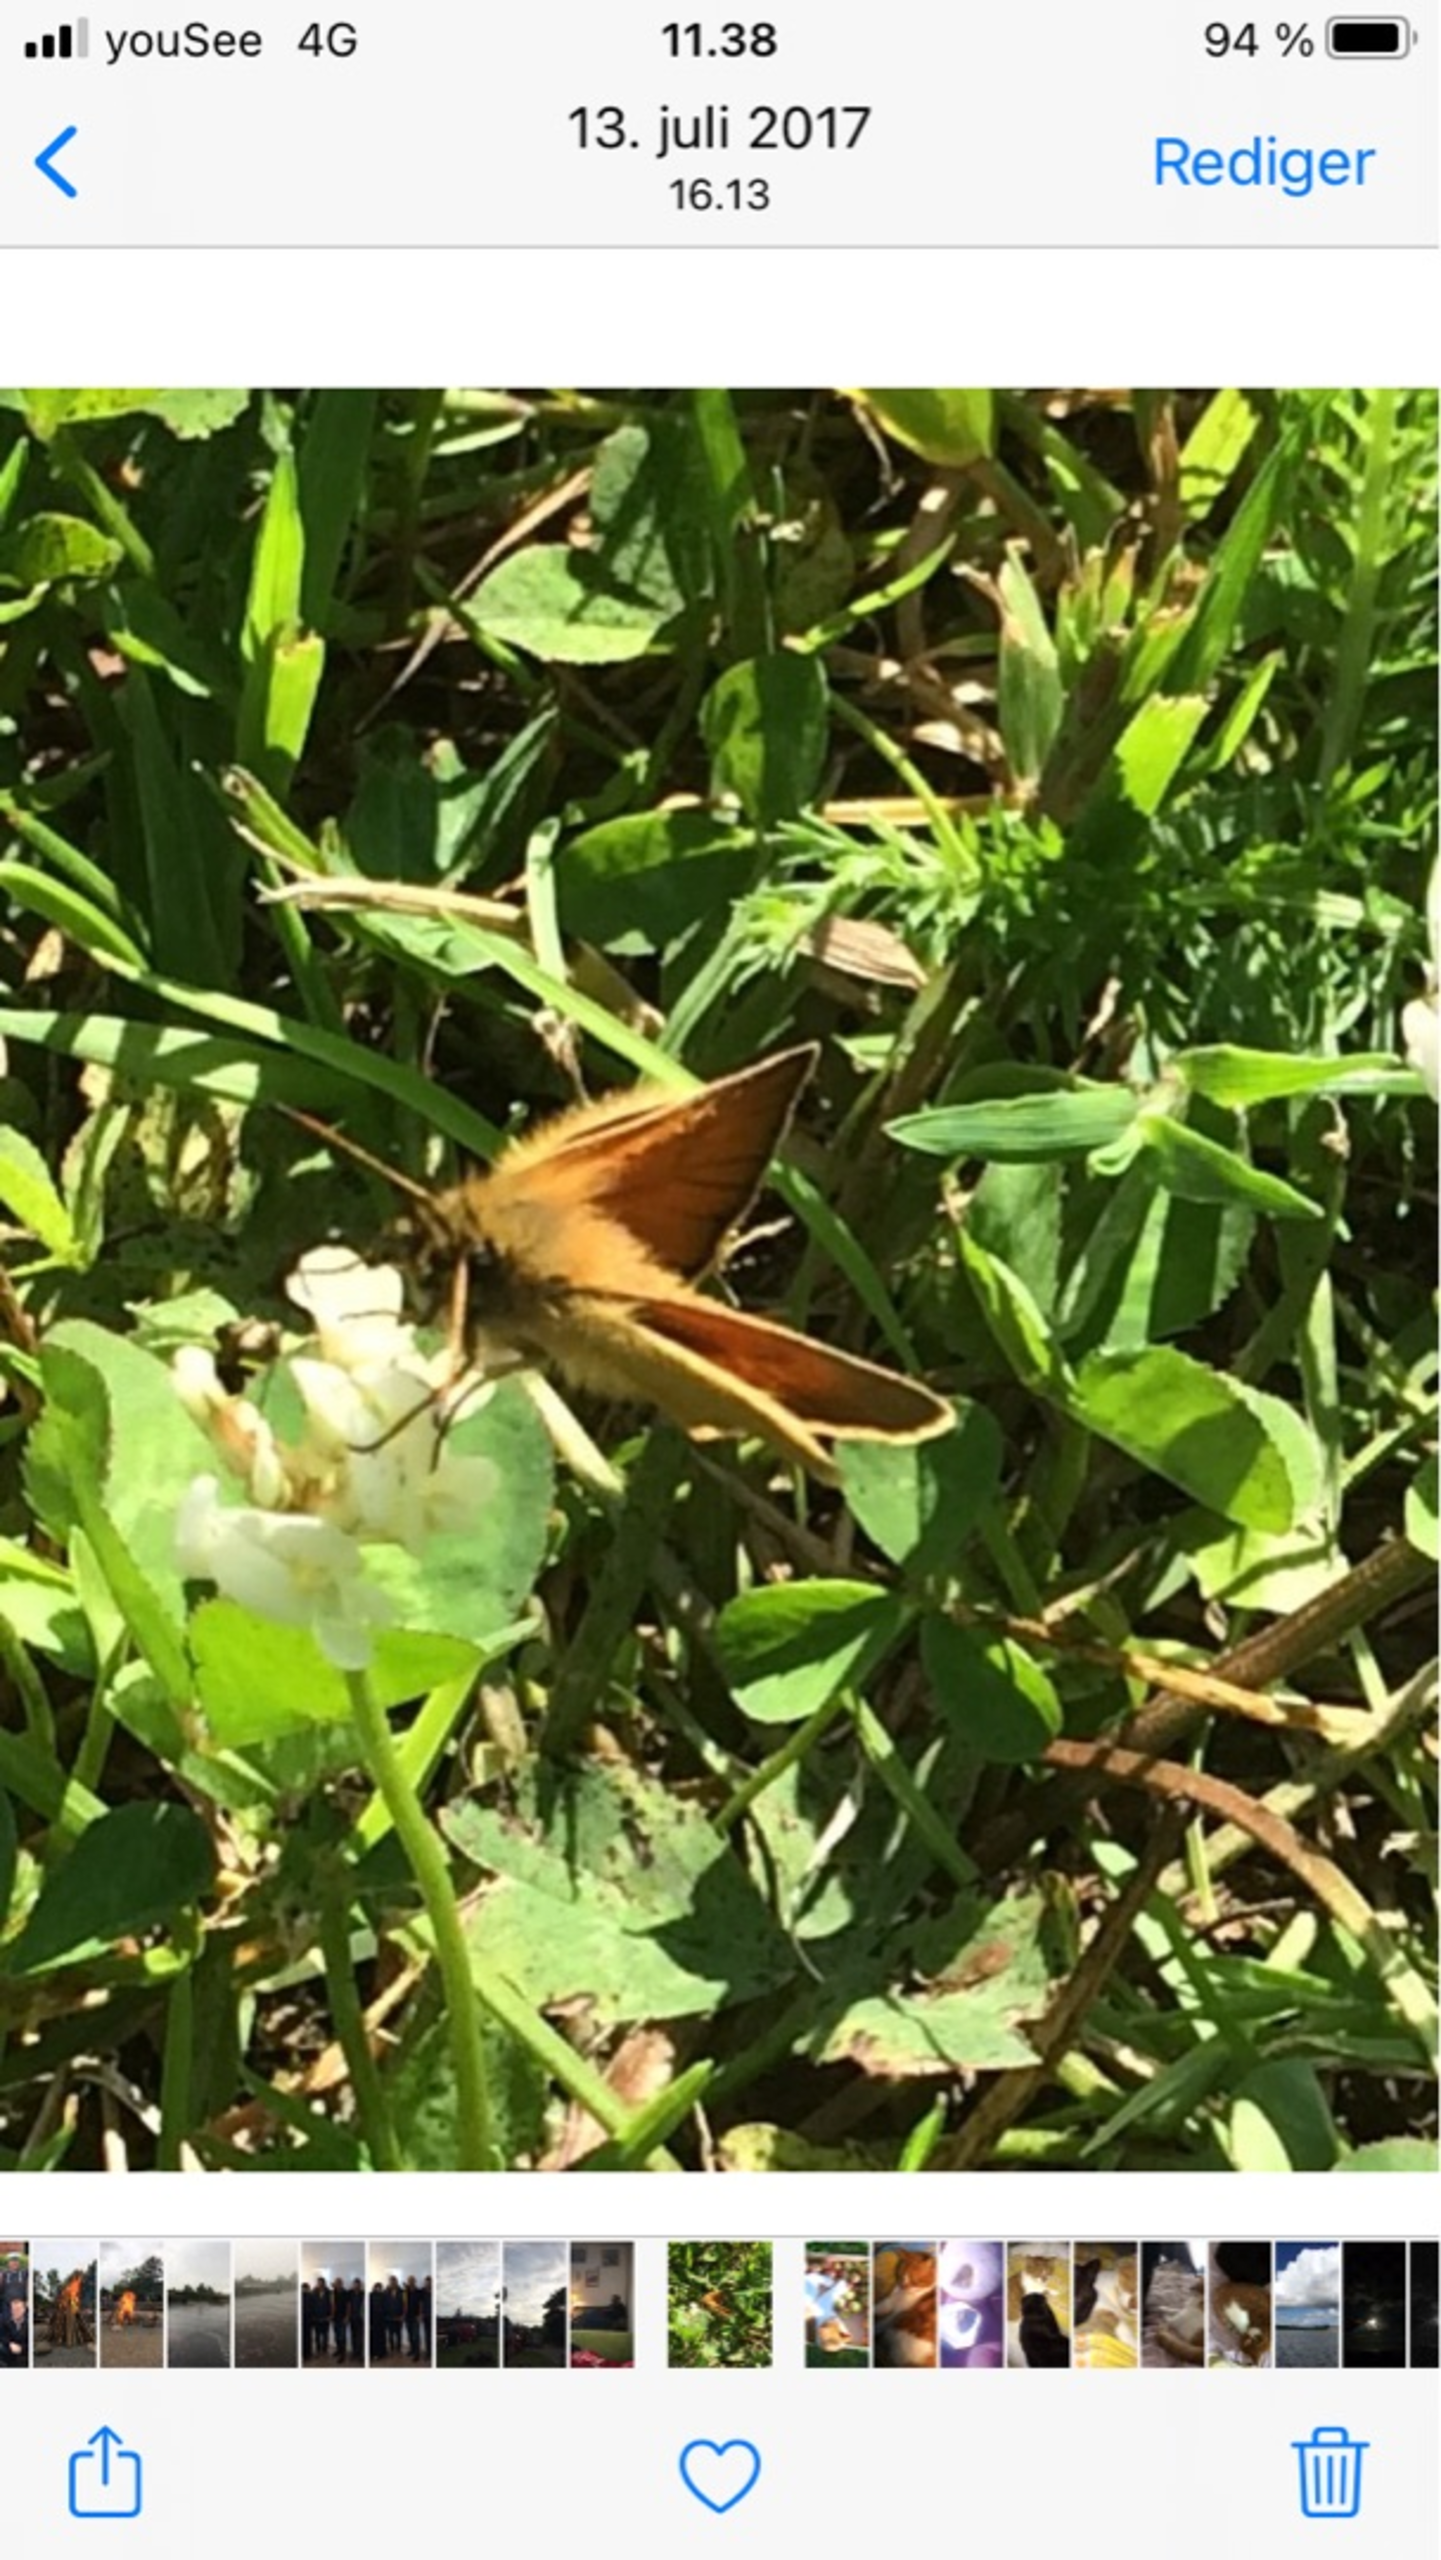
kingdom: Animalia
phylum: Arthropoda
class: Insecta
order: Lepidoptera
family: Hesperiidae
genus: Thymelicus
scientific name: Thymelicus lineola
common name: Stregbredpande
